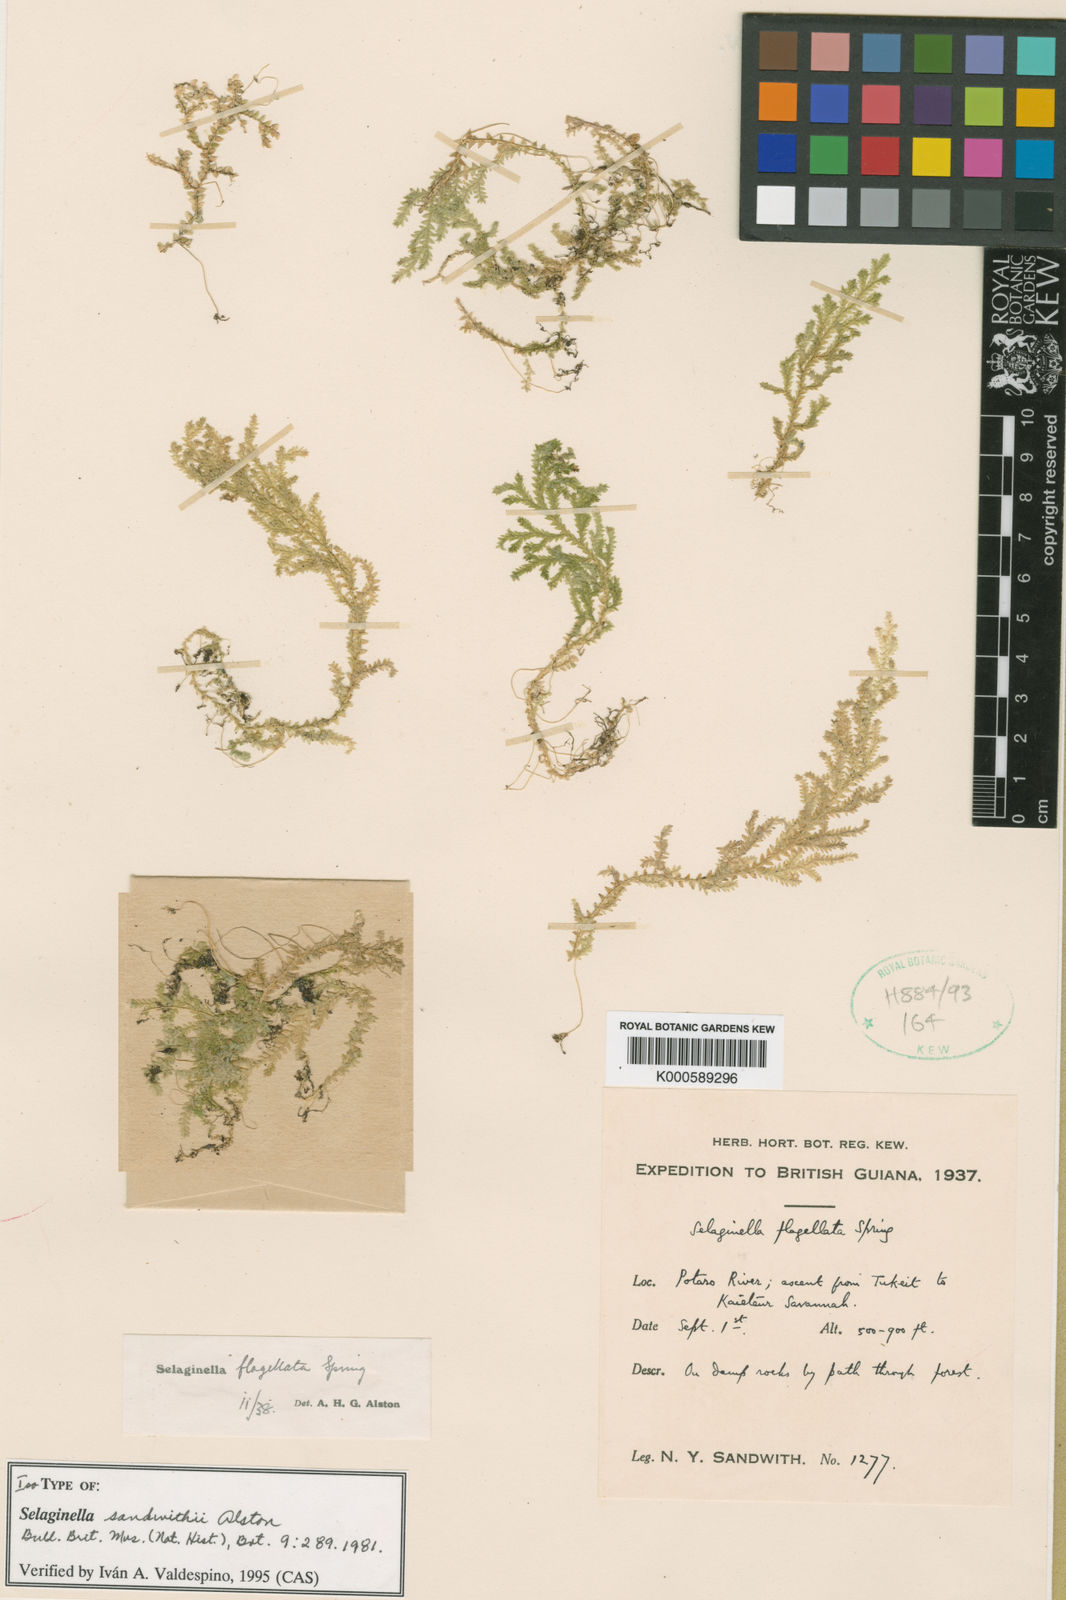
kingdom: Plantae
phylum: Tracheophyta
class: Lycopodiopsida
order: Selaginellales
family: Selaginellaceae
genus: Selaginella
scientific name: Selaginella sandwithii
